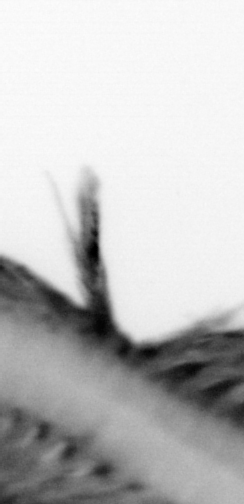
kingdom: Animalia
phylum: Annelida
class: Polychaeta
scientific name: Polychaeta
